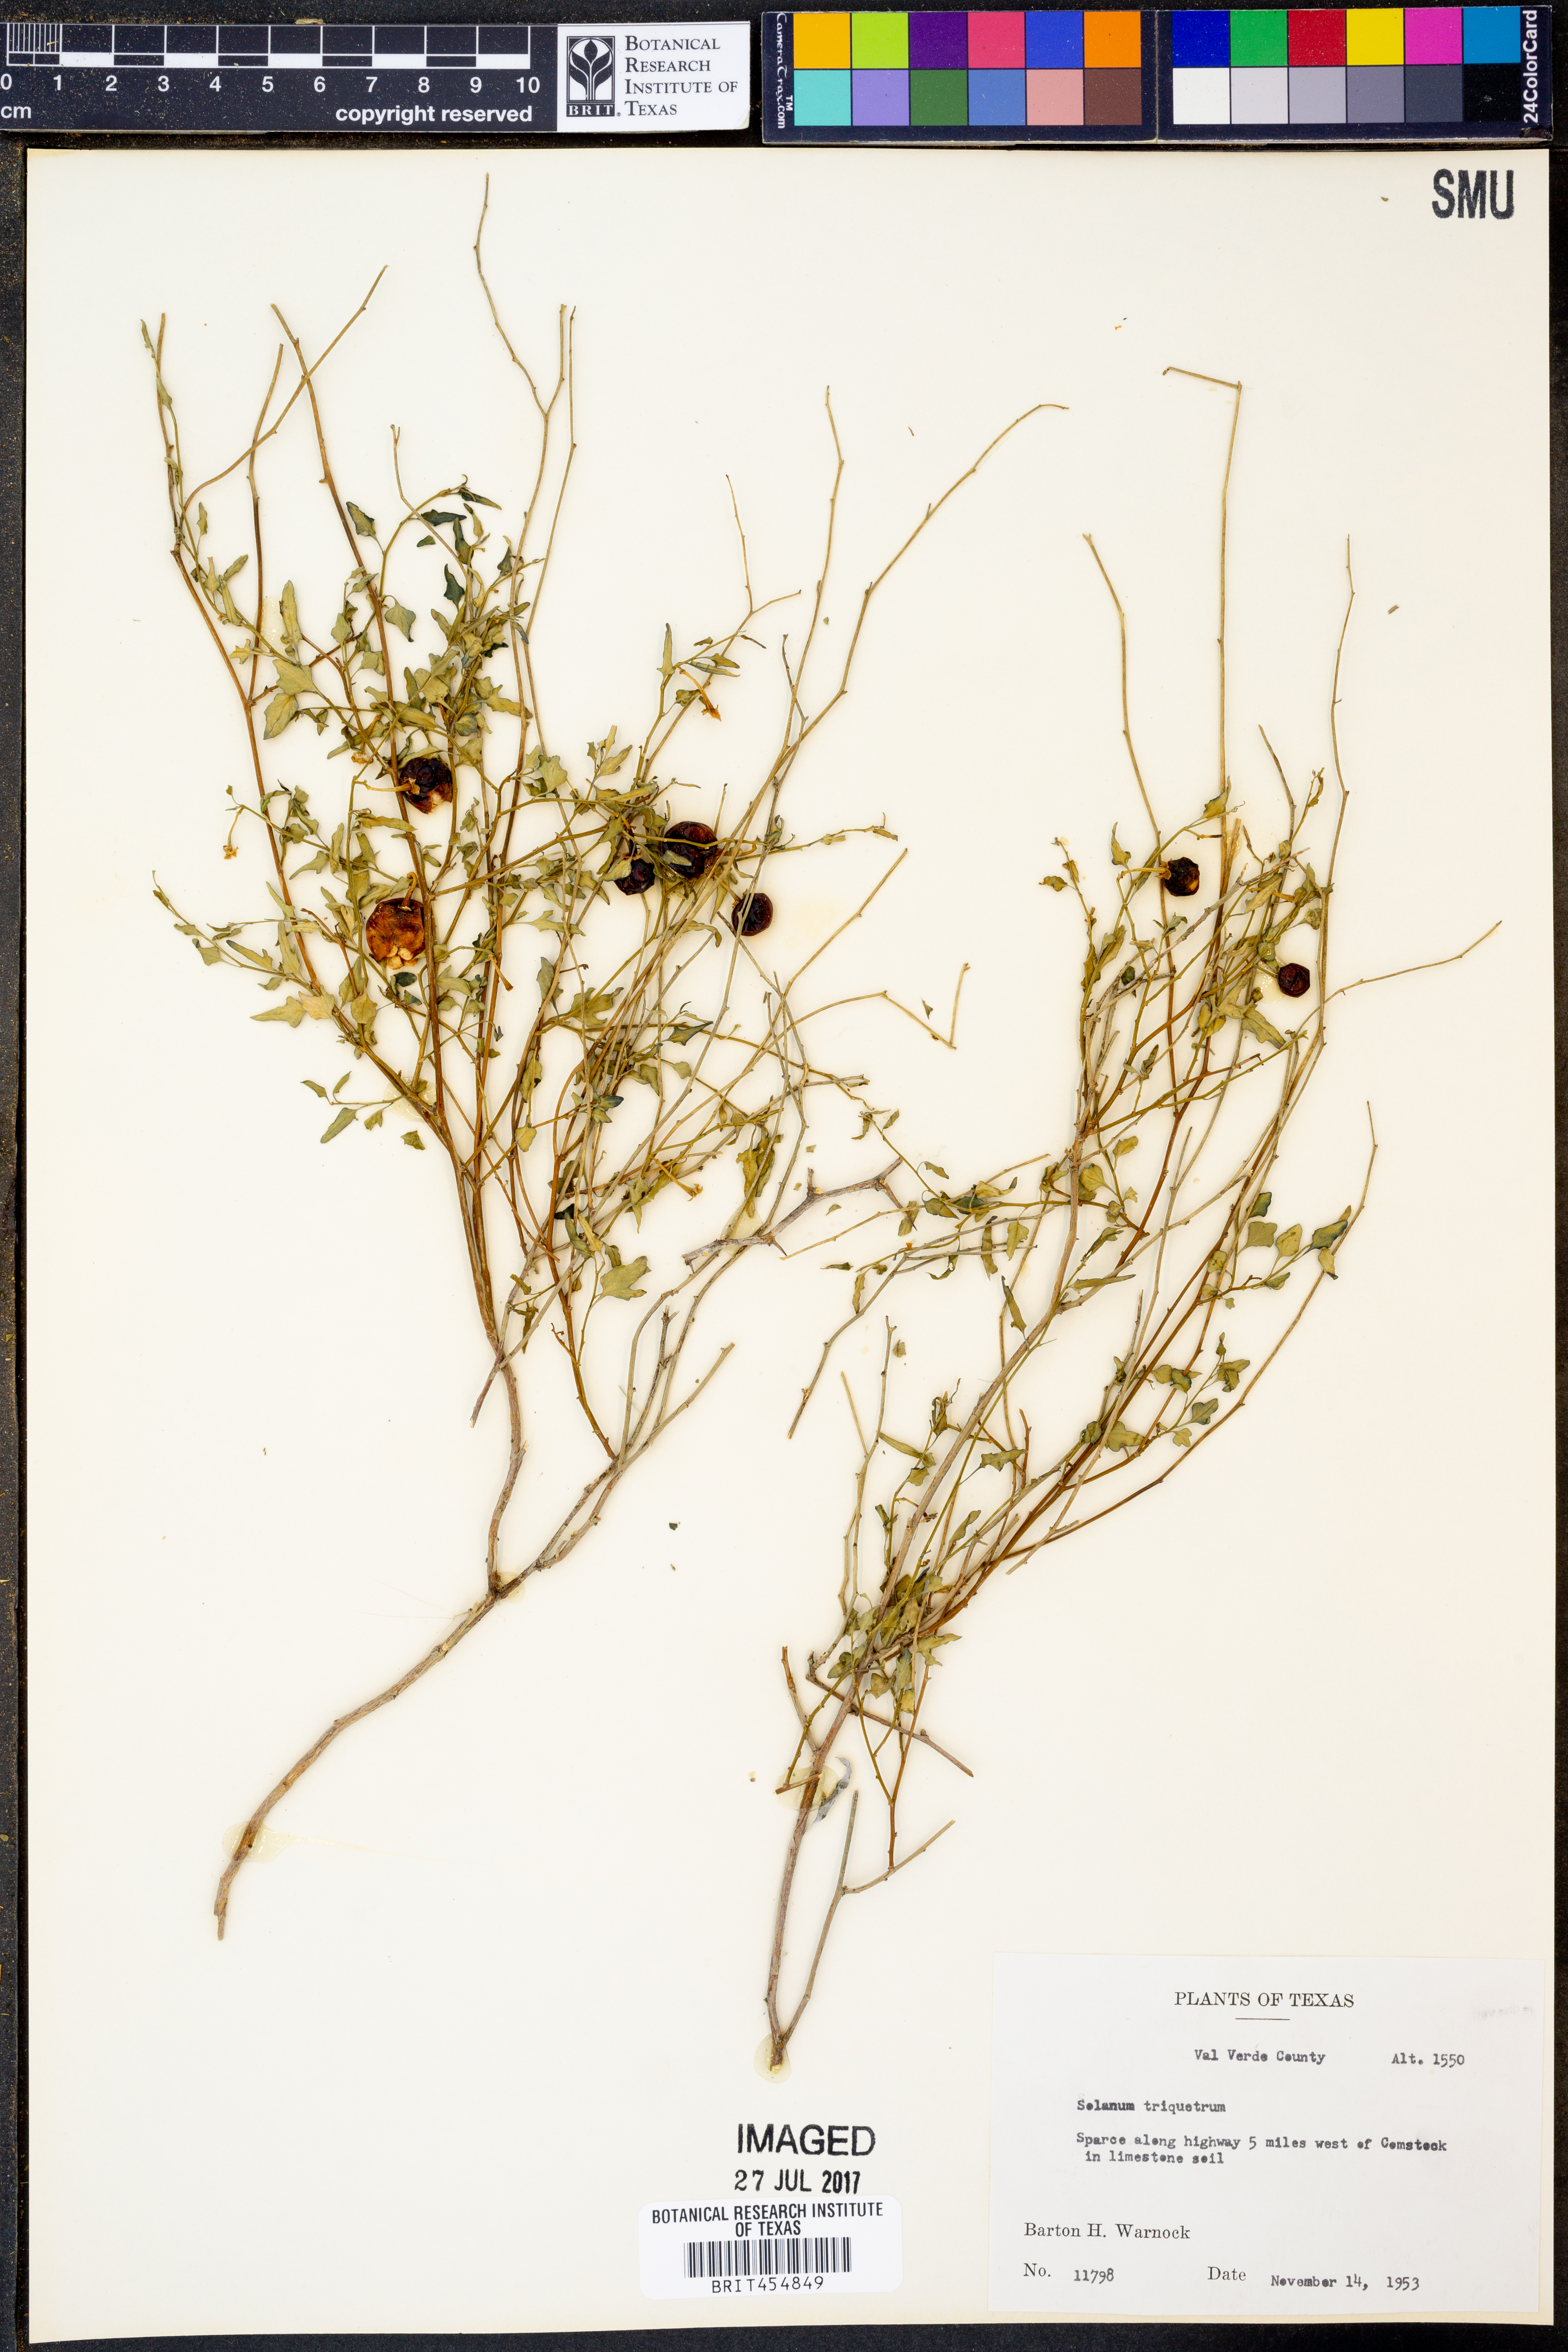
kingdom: Plantae
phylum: Tracheophyta
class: Magnoliopsida
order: Solanales
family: Solanaceae
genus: Solanum
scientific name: Solanum triquetrum
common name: Texas nightshade
